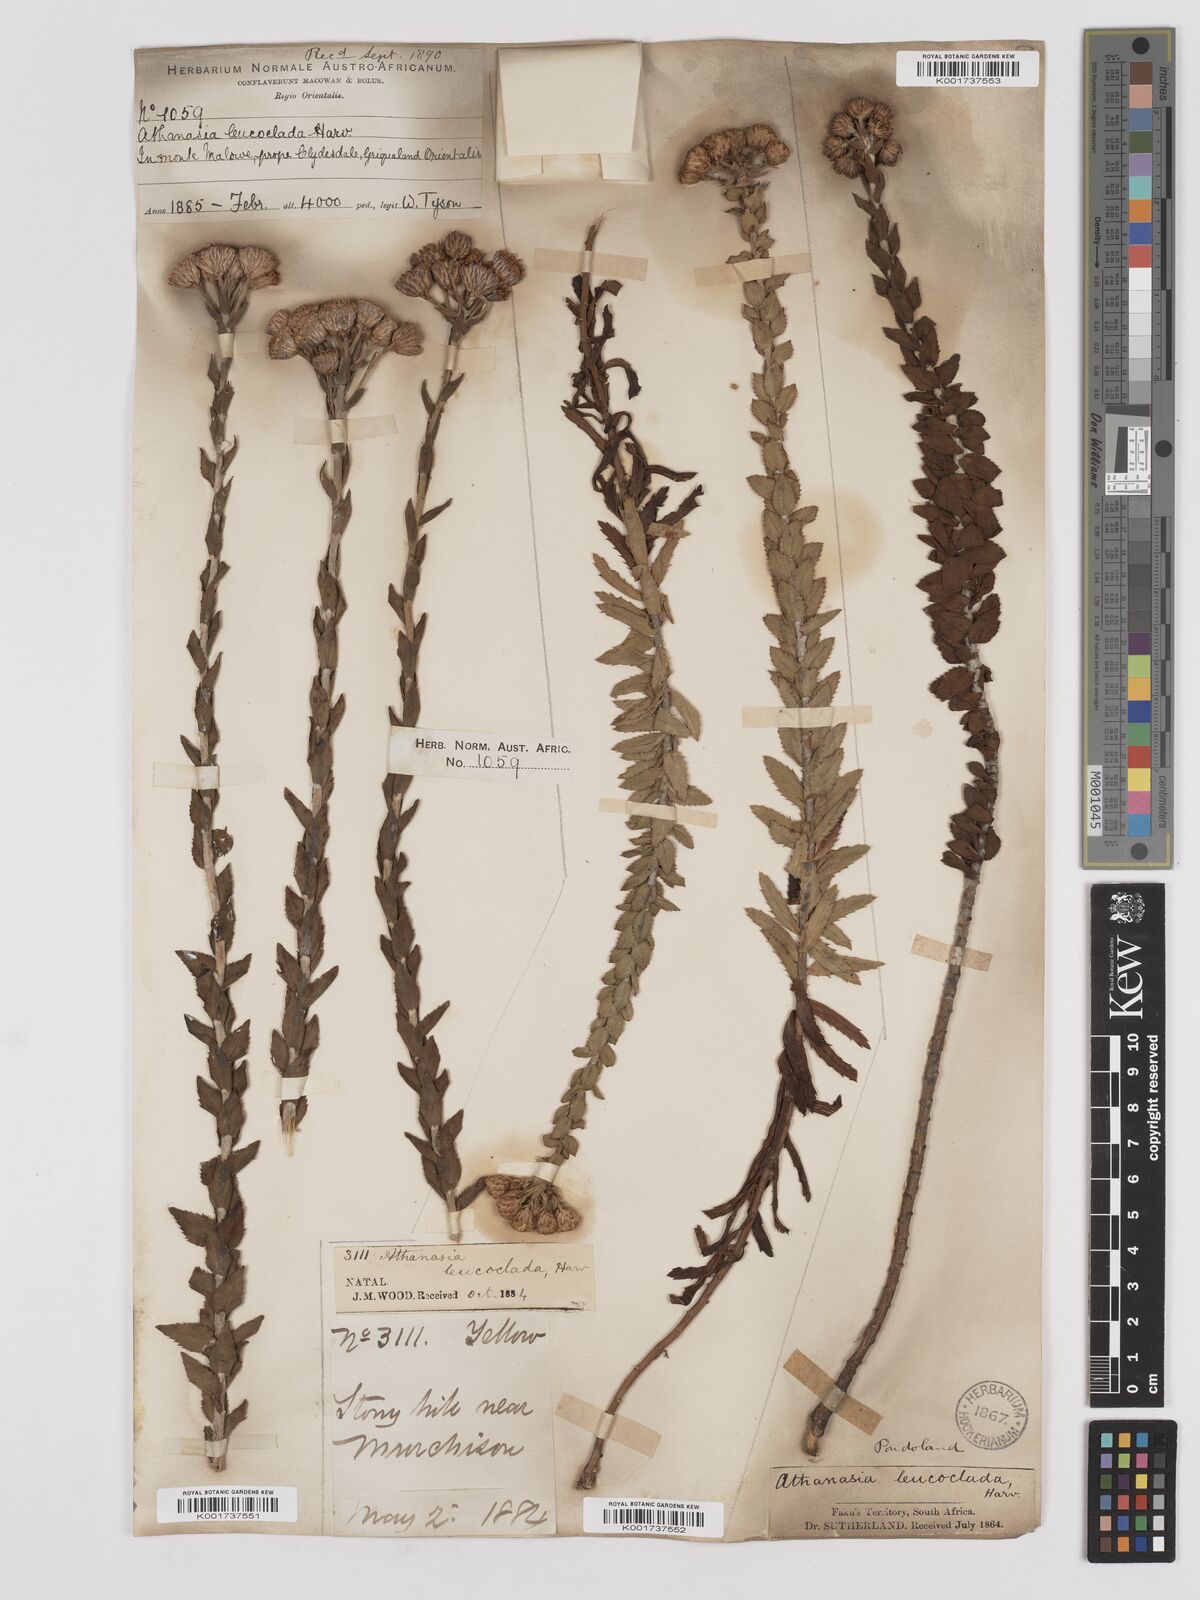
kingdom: Plantae
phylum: Tracheophyta
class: Magnoliopsida
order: Asterales
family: Asteraceae
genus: Inulanthera
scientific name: Inulanthera leucoclada
